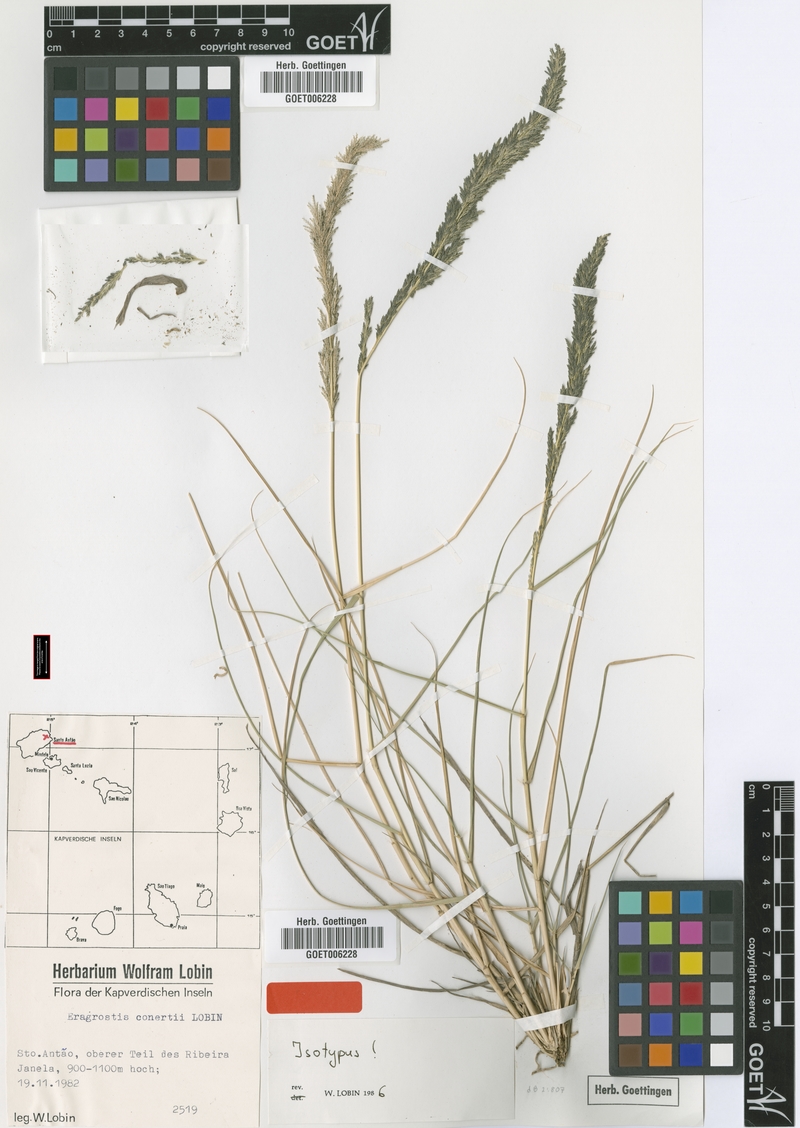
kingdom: Plantae
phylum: Tracheophyta
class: Liliopsida
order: Poales
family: Poaceae
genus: Eragrostis
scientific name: Eragrostis conertii
